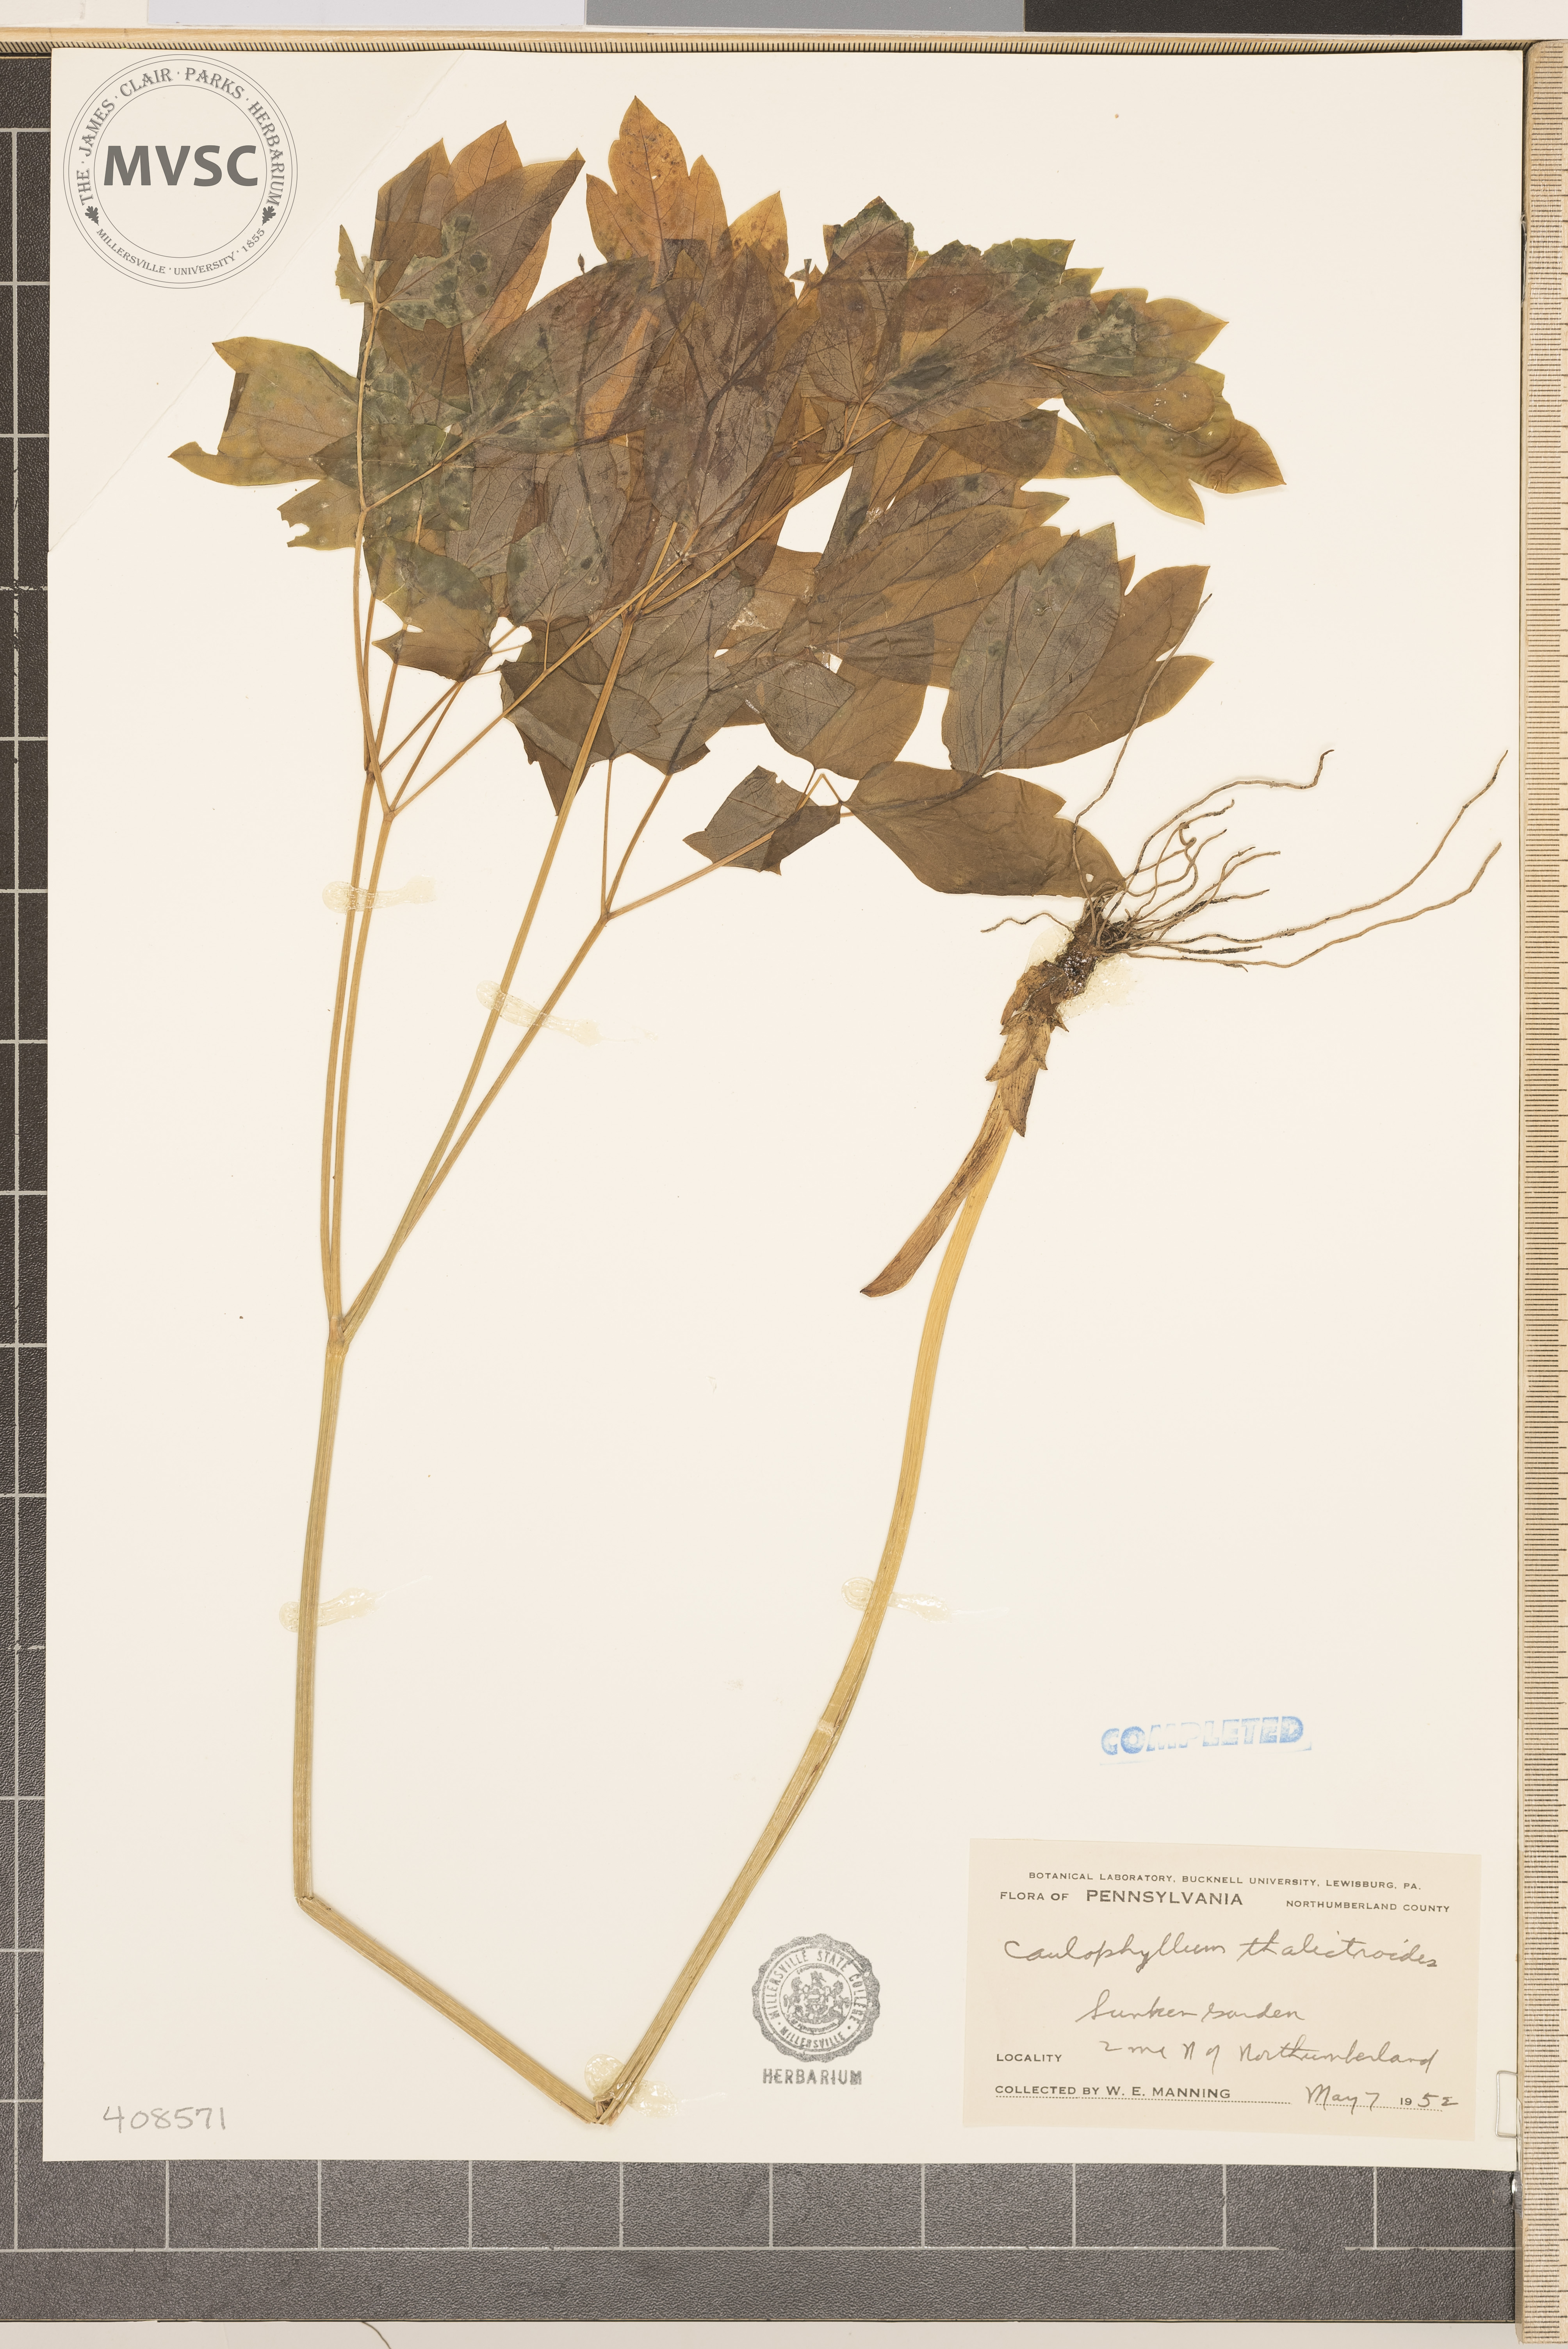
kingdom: Plantae
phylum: Tracheophyta
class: Magnoliopsida
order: Ranunculales
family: Berberidaceae
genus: Caulophyllum
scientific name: Caulophyllum thalictroides
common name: Blue cohosh
